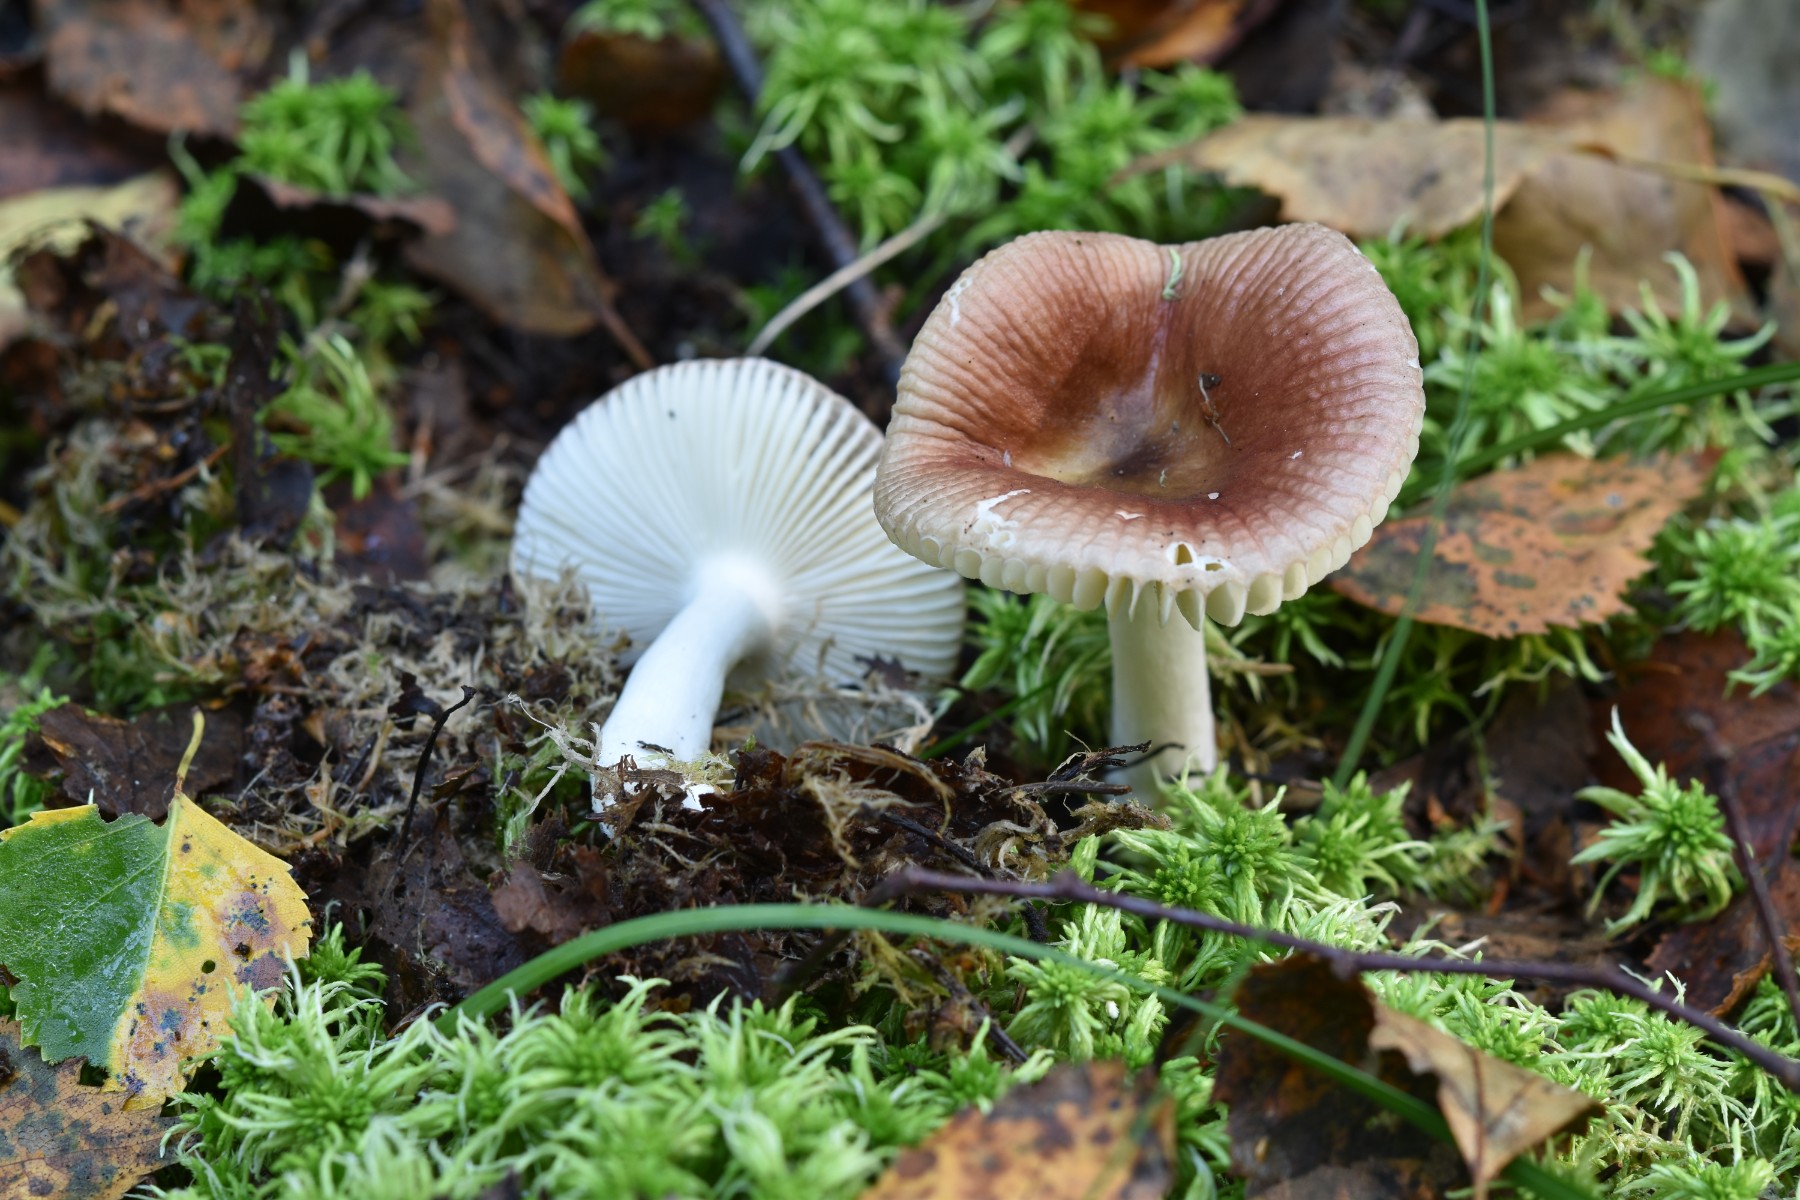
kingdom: Fungi
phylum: Basidiomycota
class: Agaricomycetes
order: Russulales
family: Russulaceae
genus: Russula
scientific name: Russula robertii
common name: tørvemos-skørhat
